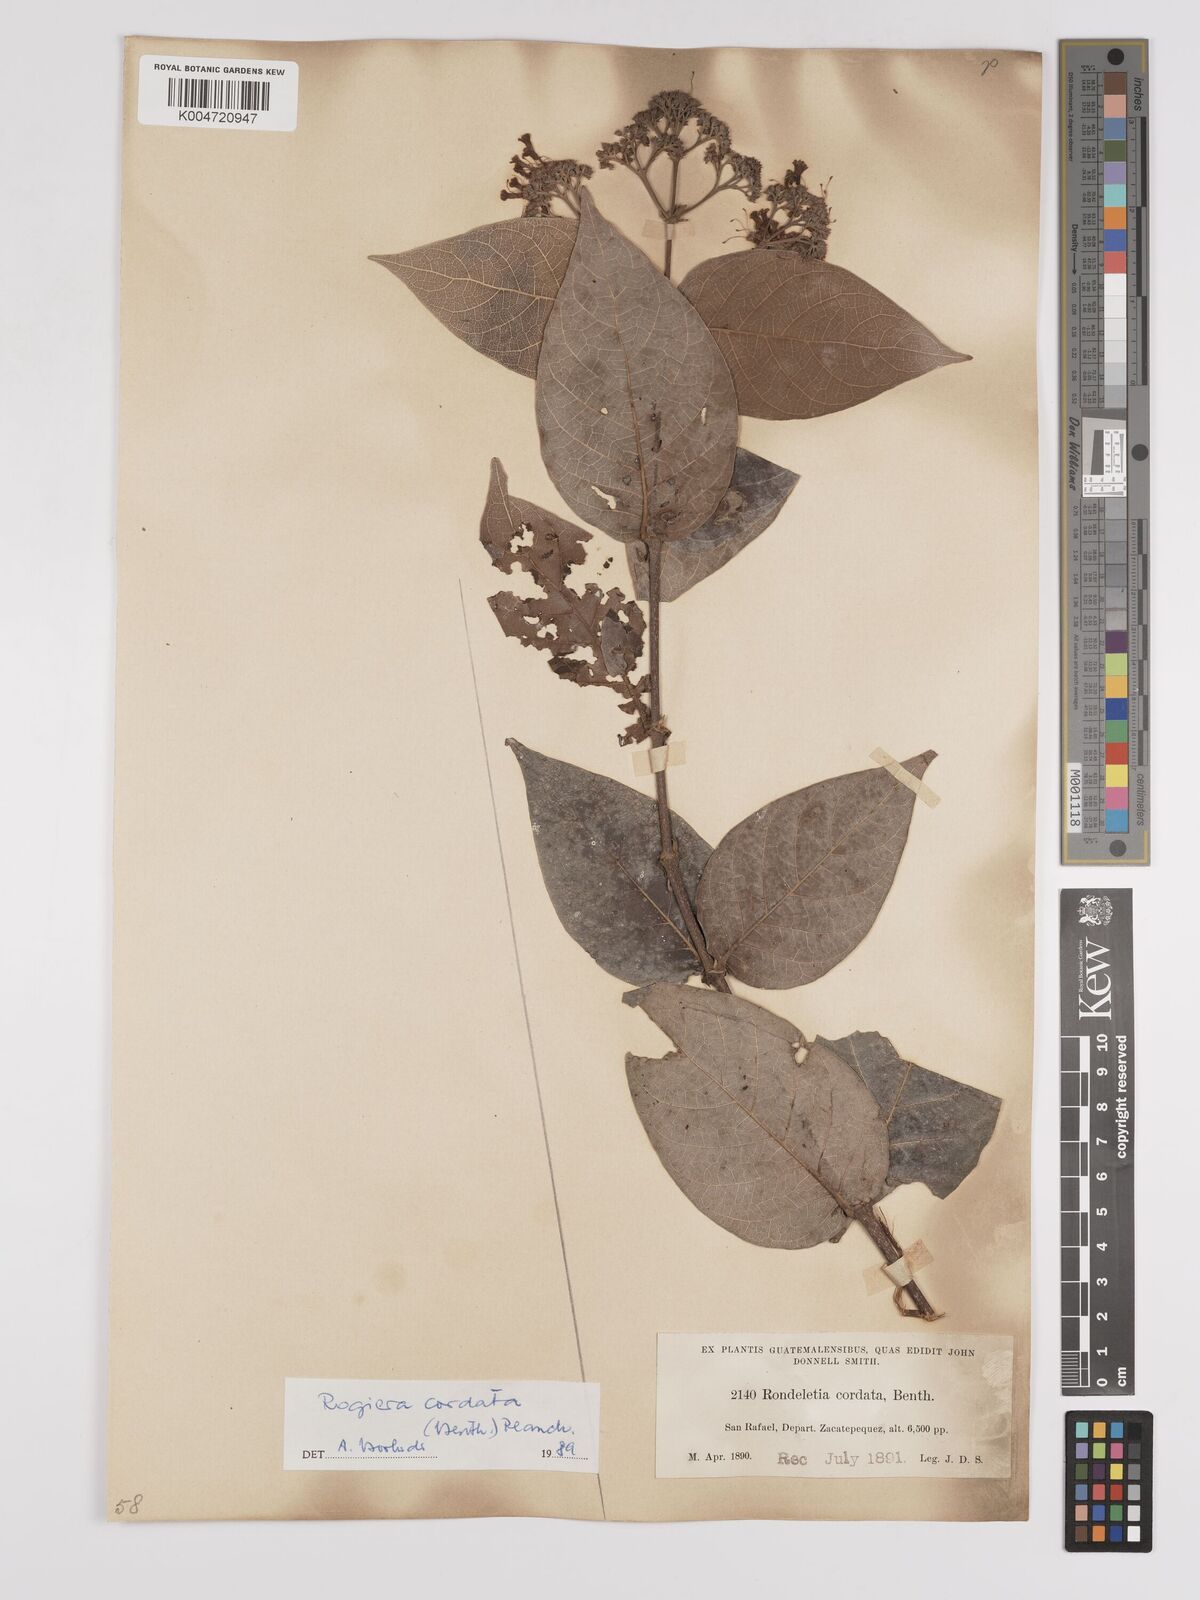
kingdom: Plantae
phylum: Tracheophyta
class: Magnoliopsida
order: Gentianales
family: Rubiaceae
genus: Rogiera
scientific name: Rogiera cordata
